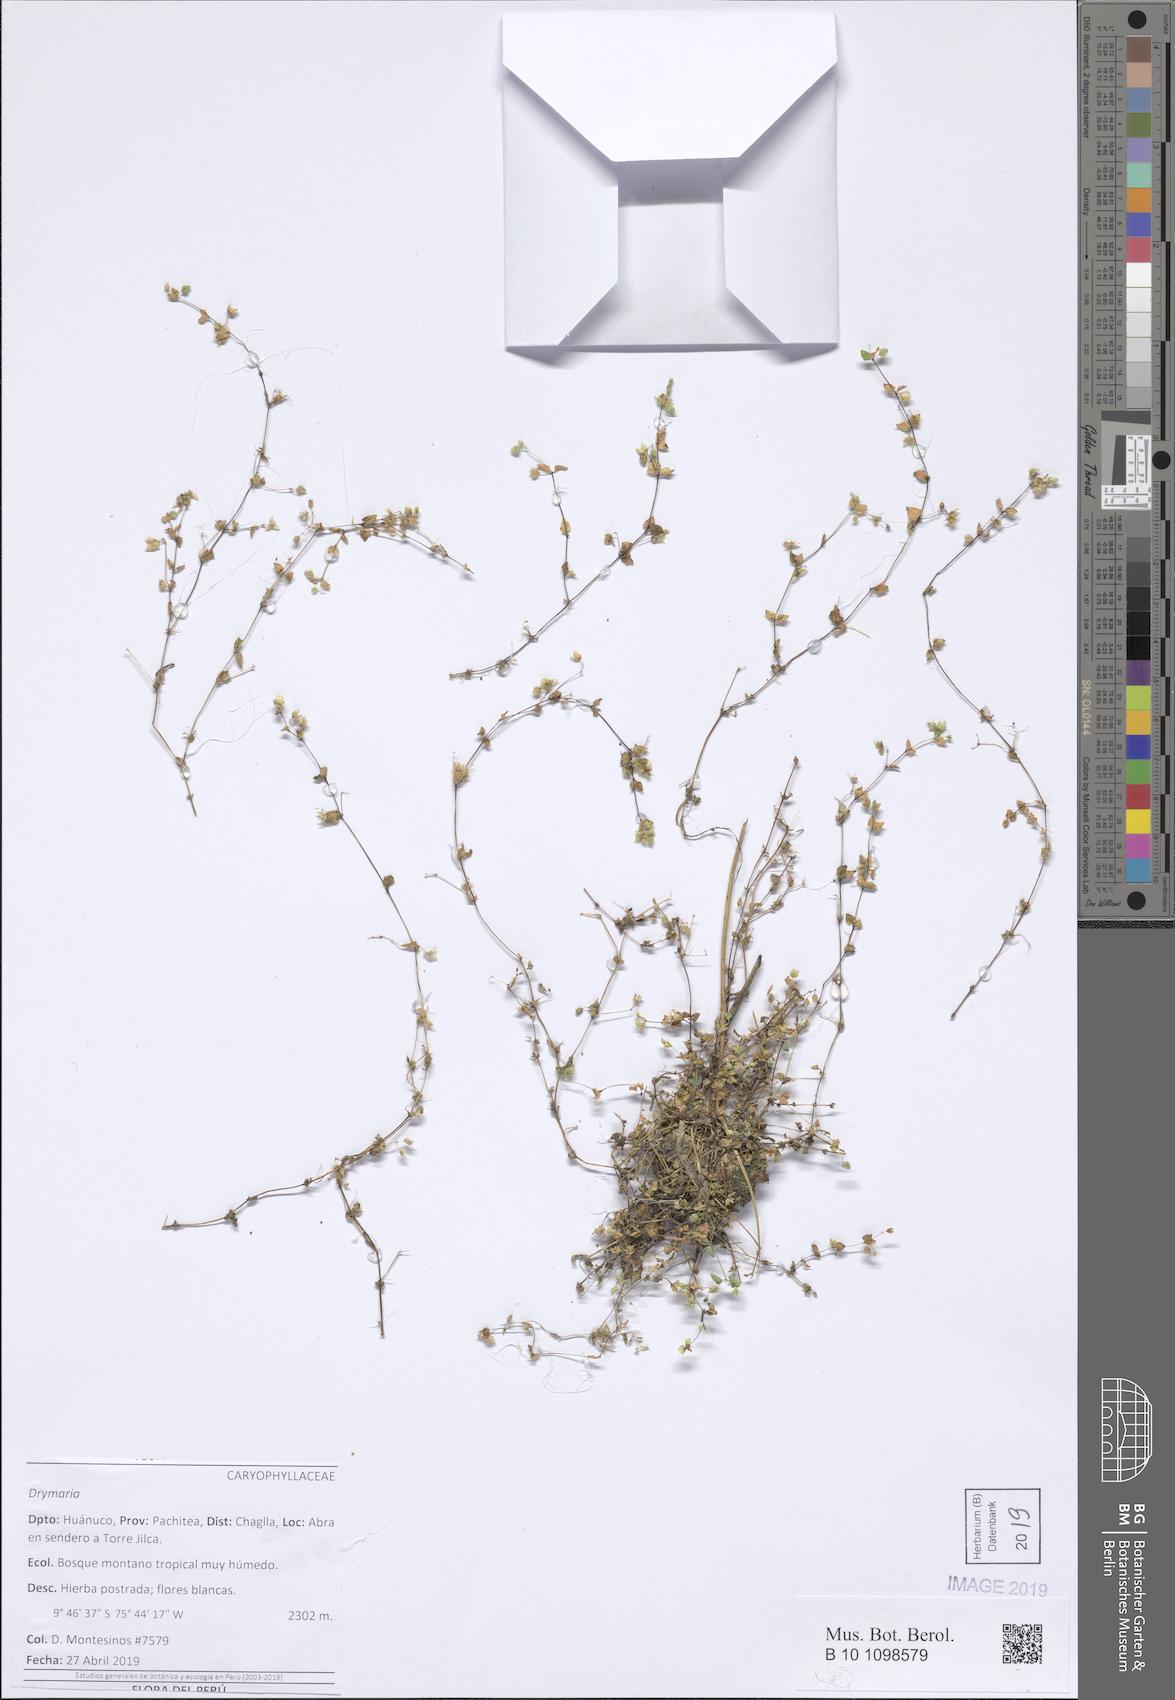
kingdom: Plantae
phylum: Tracheophyta
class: Magnoliopsida
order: Caryophyllales
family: Caryophyllaceae
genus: Drymaria
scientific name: Drymaria
